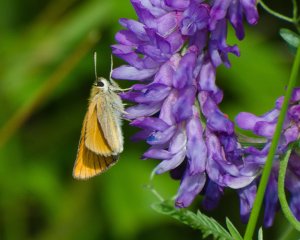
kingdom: Animalia
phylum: Arthropoda
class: Insecta
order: Lepidoptera
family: Hesperiidae
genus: Thymelicus
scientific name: Thymelicus lineola
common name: European Skipper
